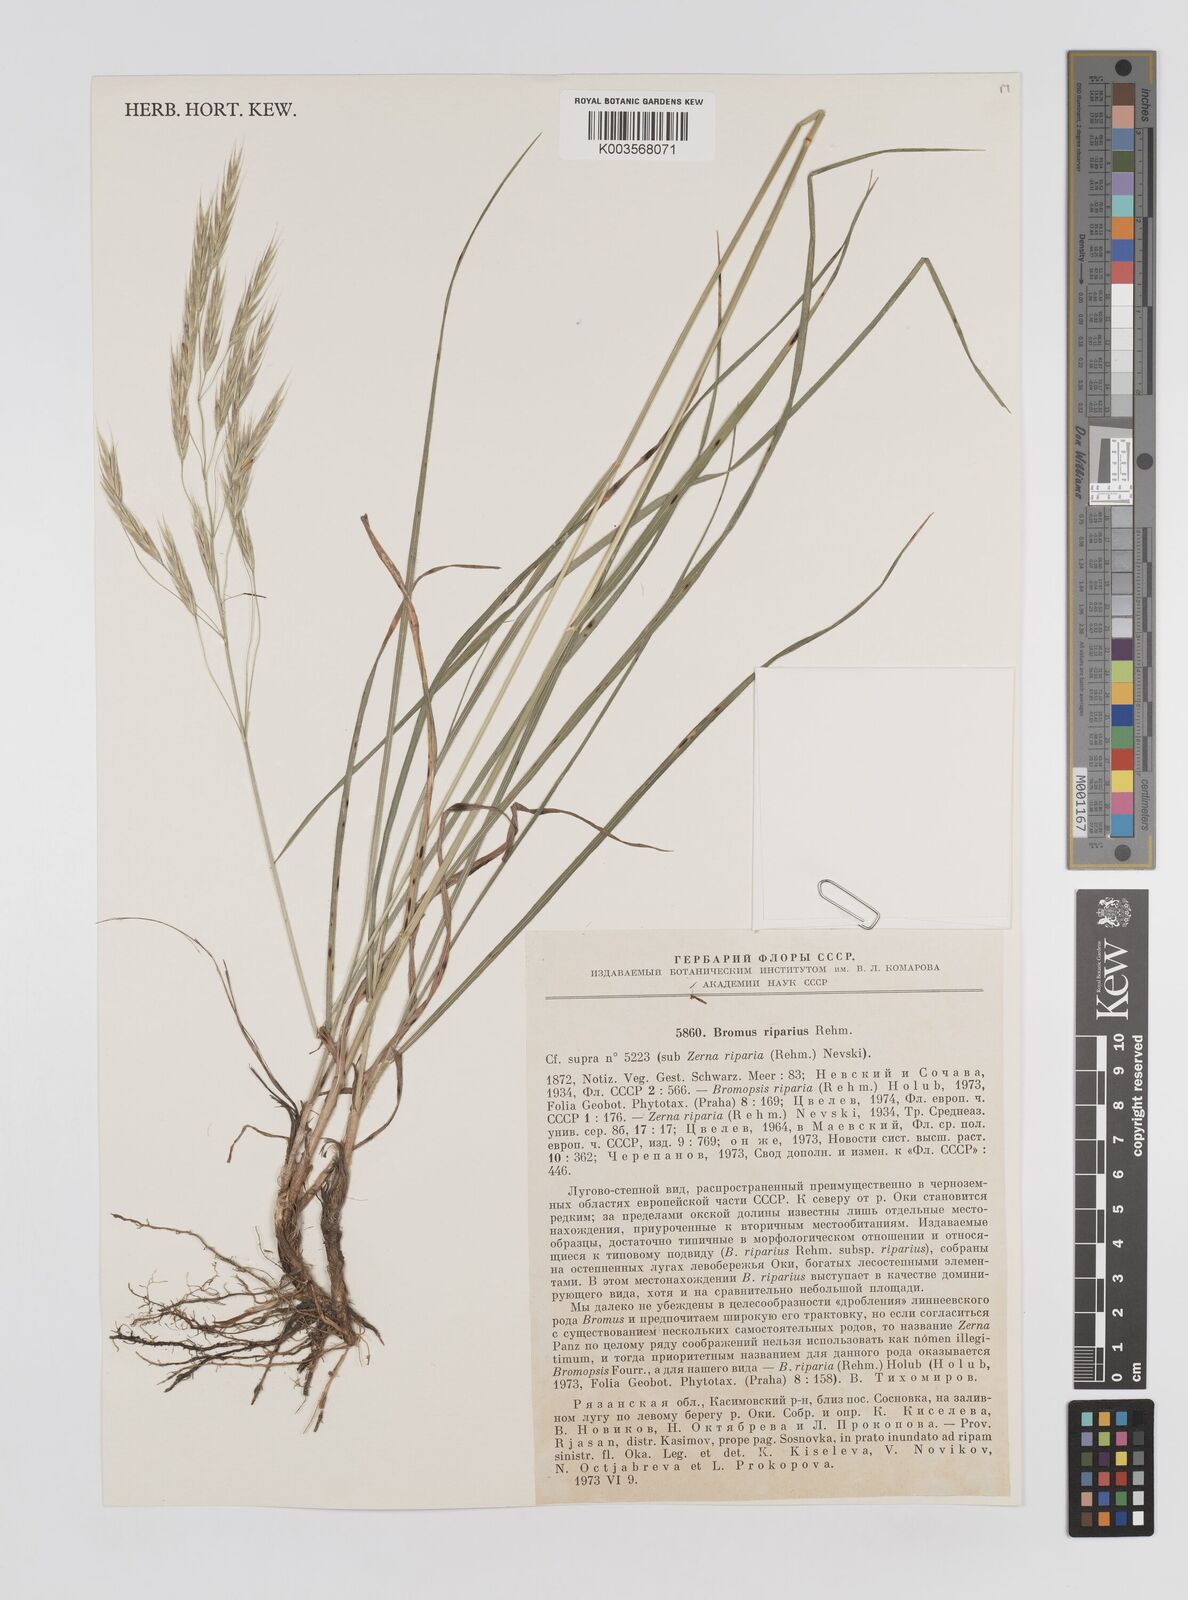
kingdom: Plantae
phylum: Tracheophyta
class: Liliopsida
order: Poales
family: Poaceae
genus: Bromus
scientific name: Bromus riparius
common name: Meadow brome
